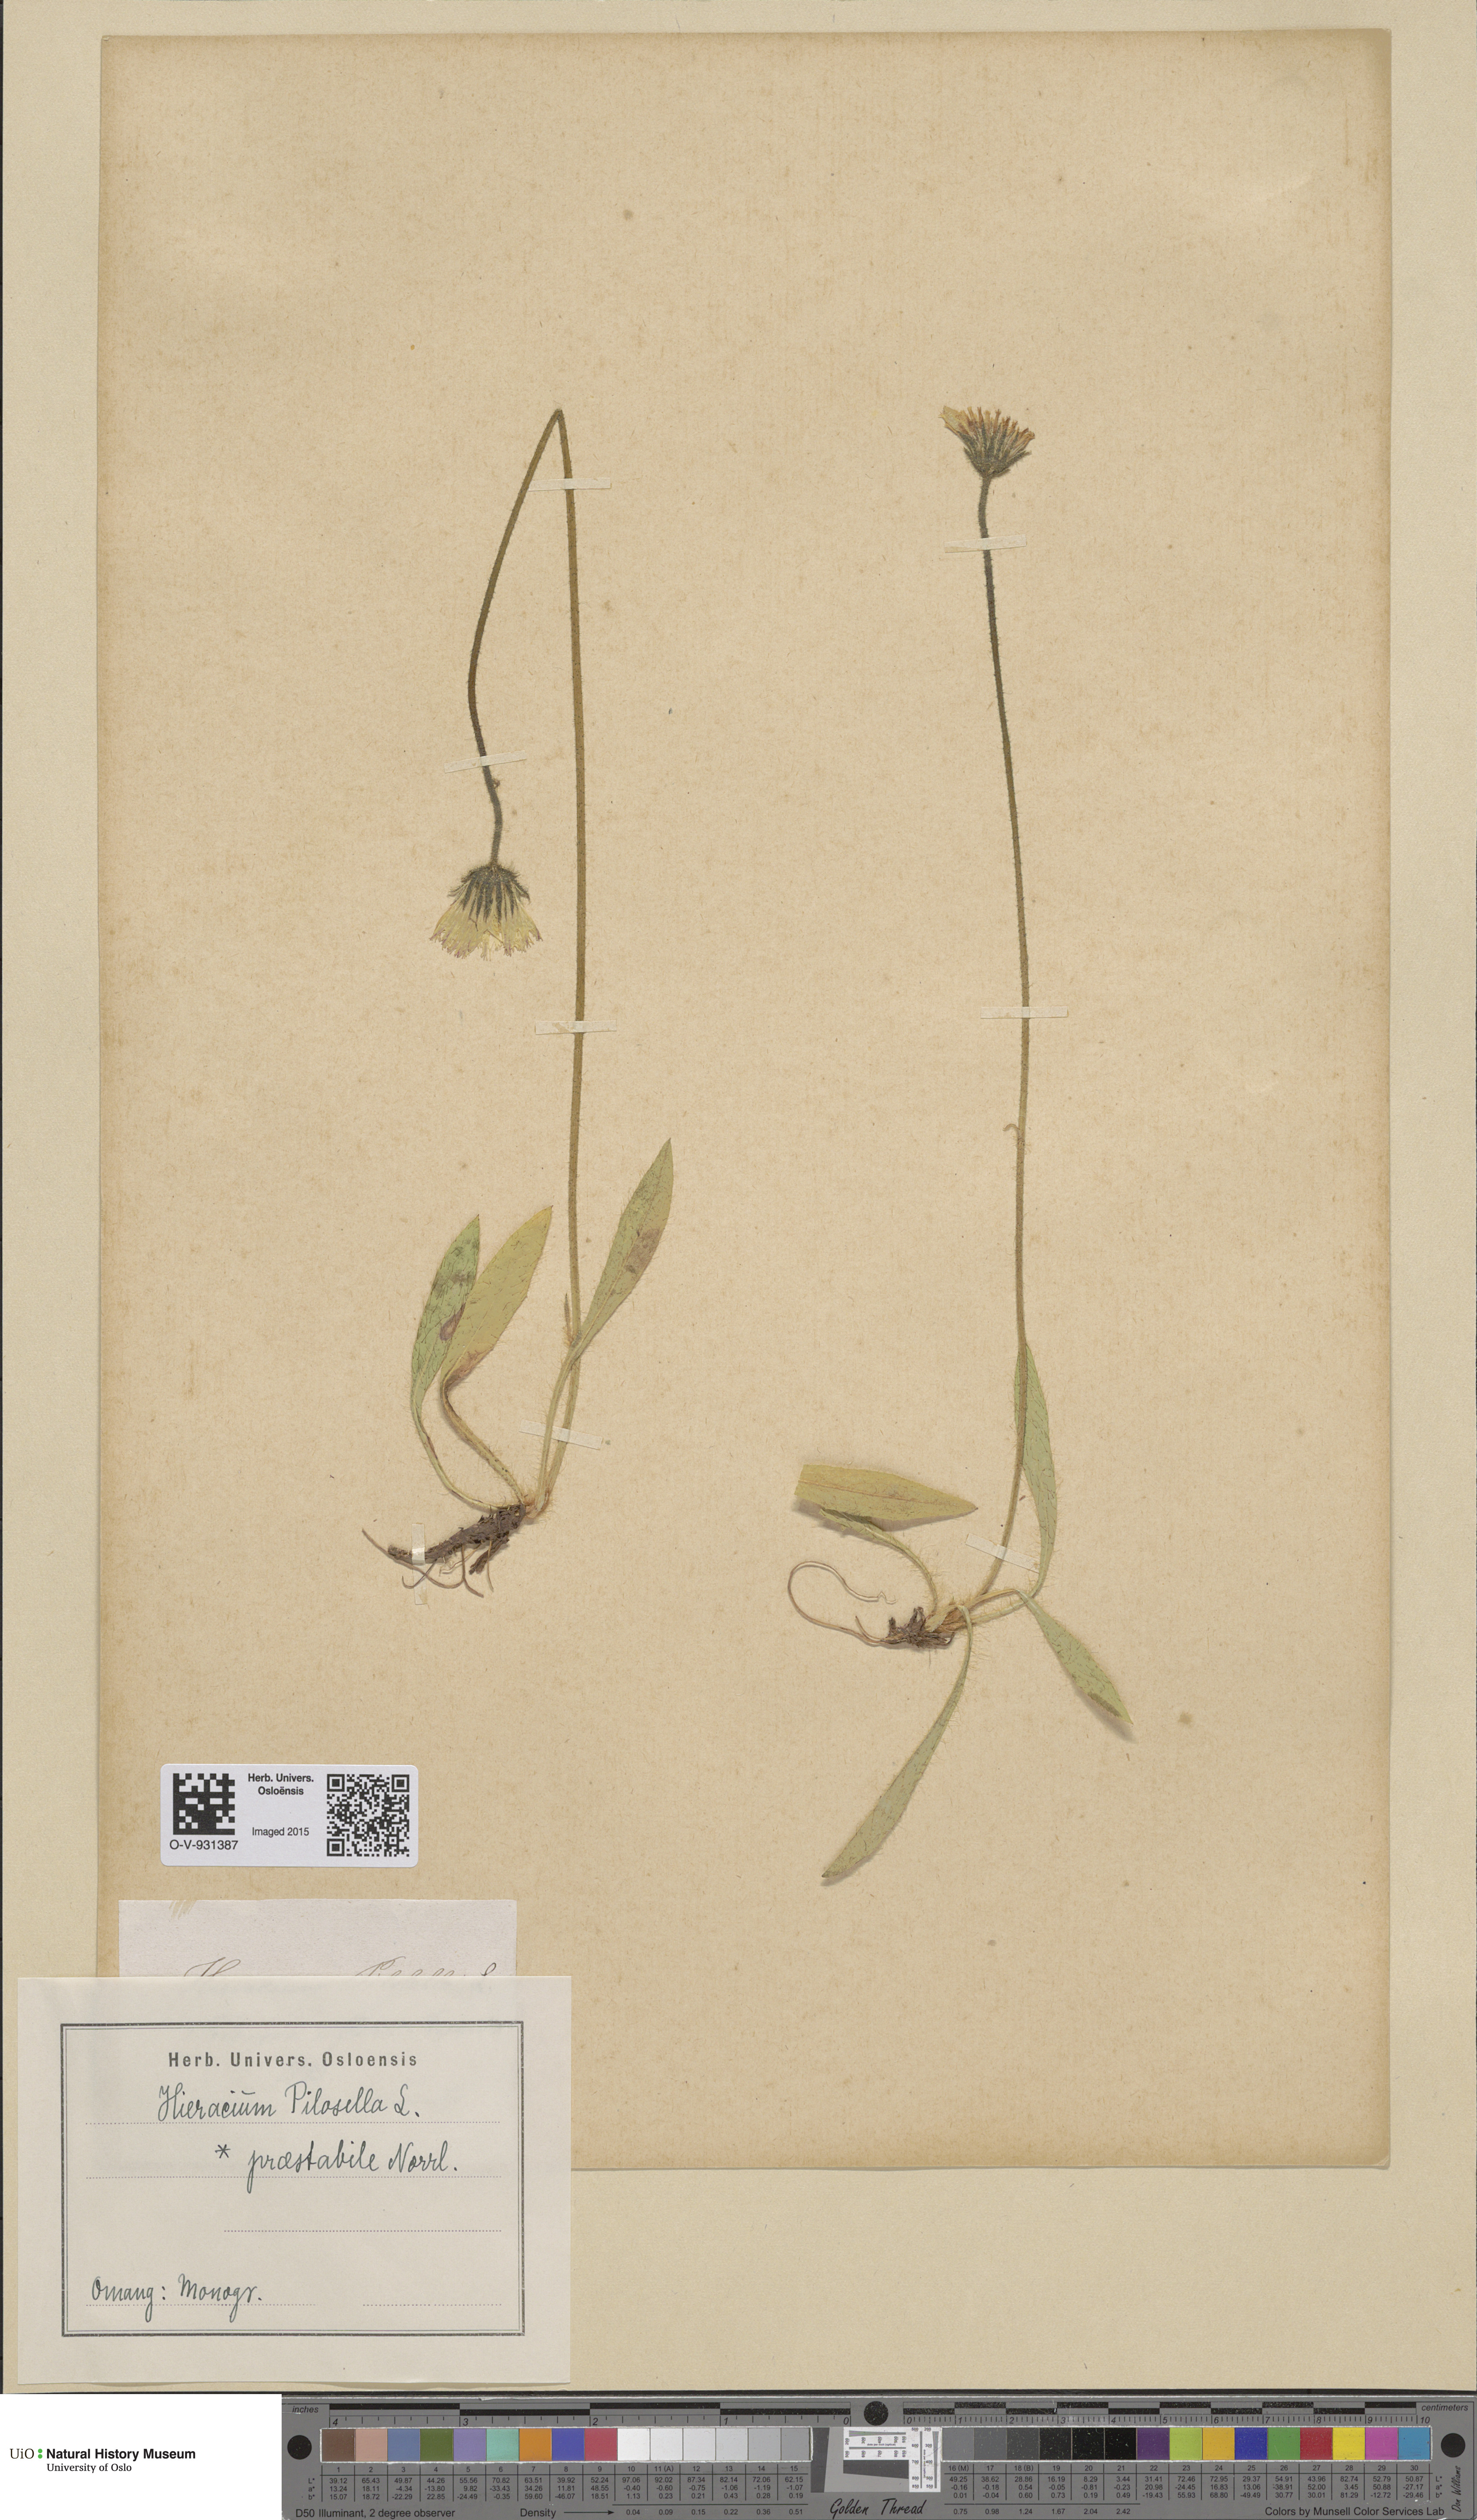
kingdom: Plantae
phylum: Tracheophyta
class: Magnoliopsida
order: Asterales
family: Asteraceae
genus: Pilosella
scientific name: Pilosella officinarum
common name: Mouse-ear hawkweed
